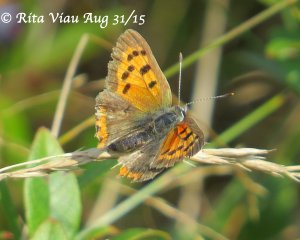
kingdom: Animalia
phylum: Arthropoda
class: Insecta
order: Lepidoptera
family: Lycaenidae
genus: Lycaena
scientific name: Lycaena phlaeas
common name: American Copper
